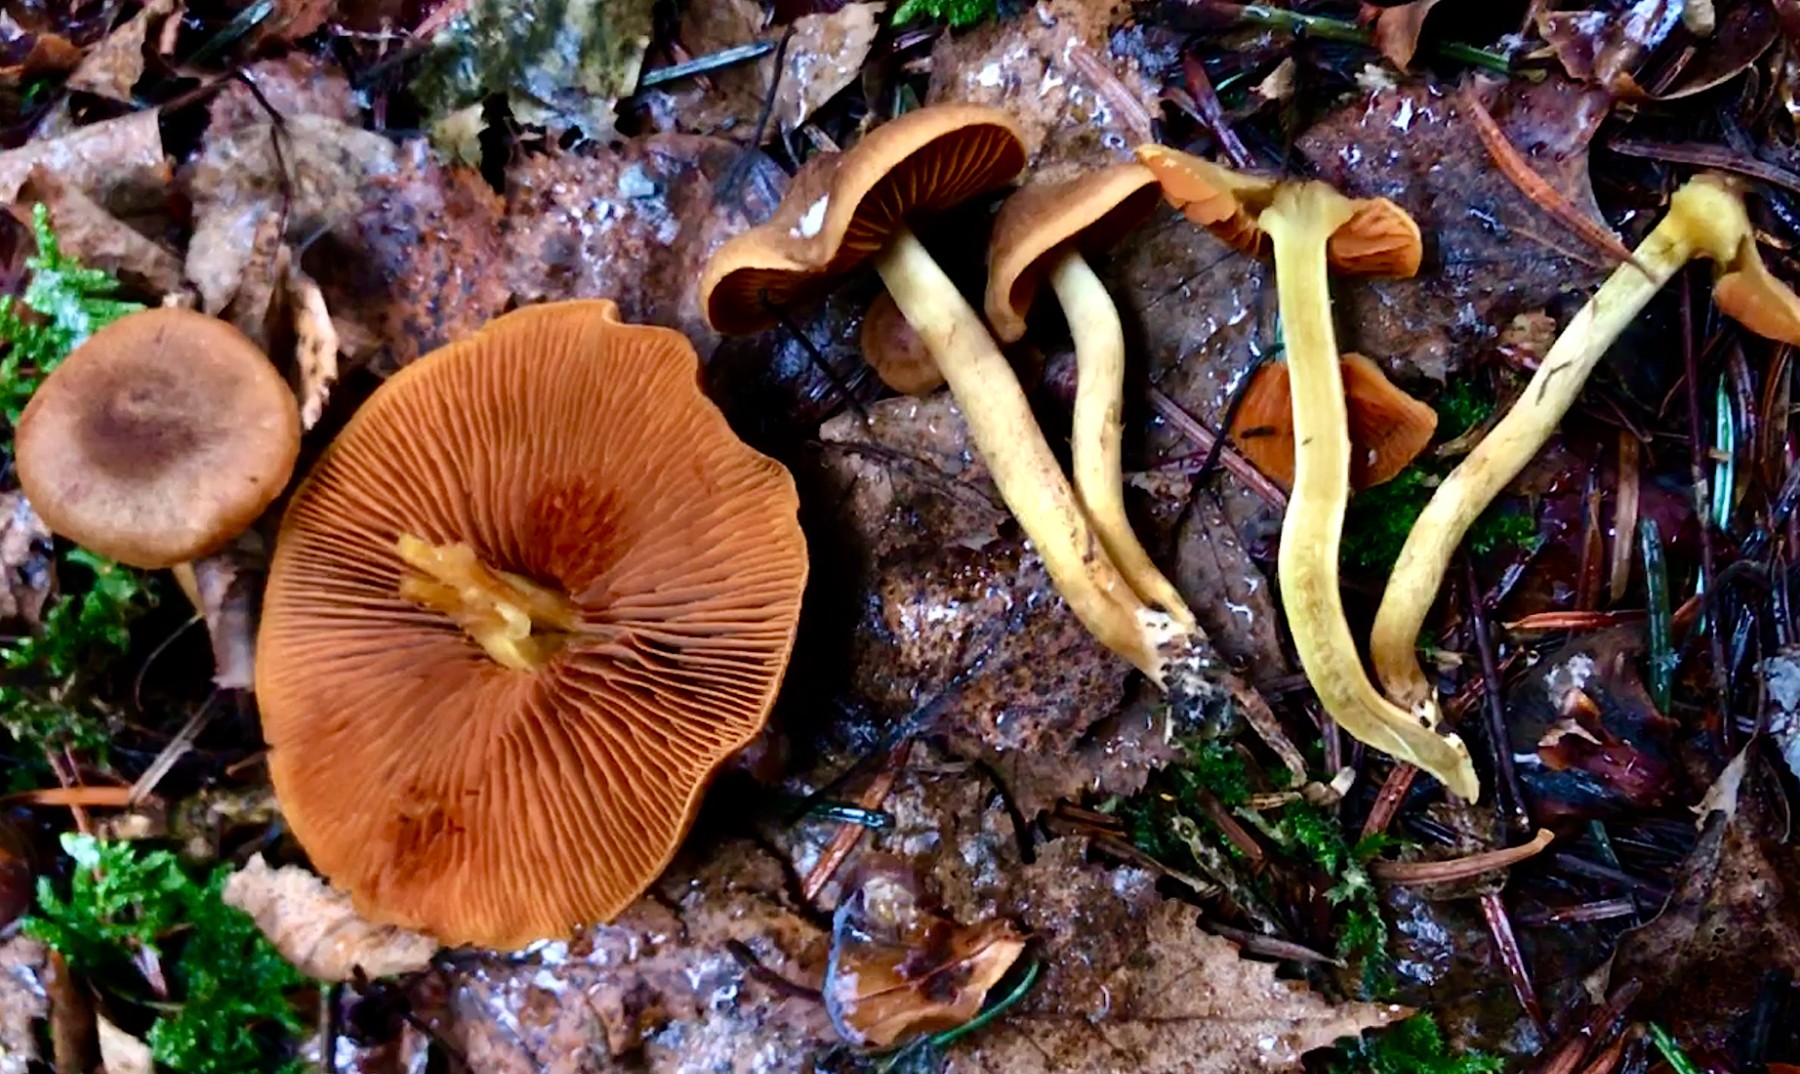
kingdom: Fungi
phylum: Basidiomycota
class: Agaricomycetes
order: Agaricales
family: Cortinariaceae
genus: Cortinarius
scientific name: Cortinarius malicorius
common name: grønkødet slørhat
